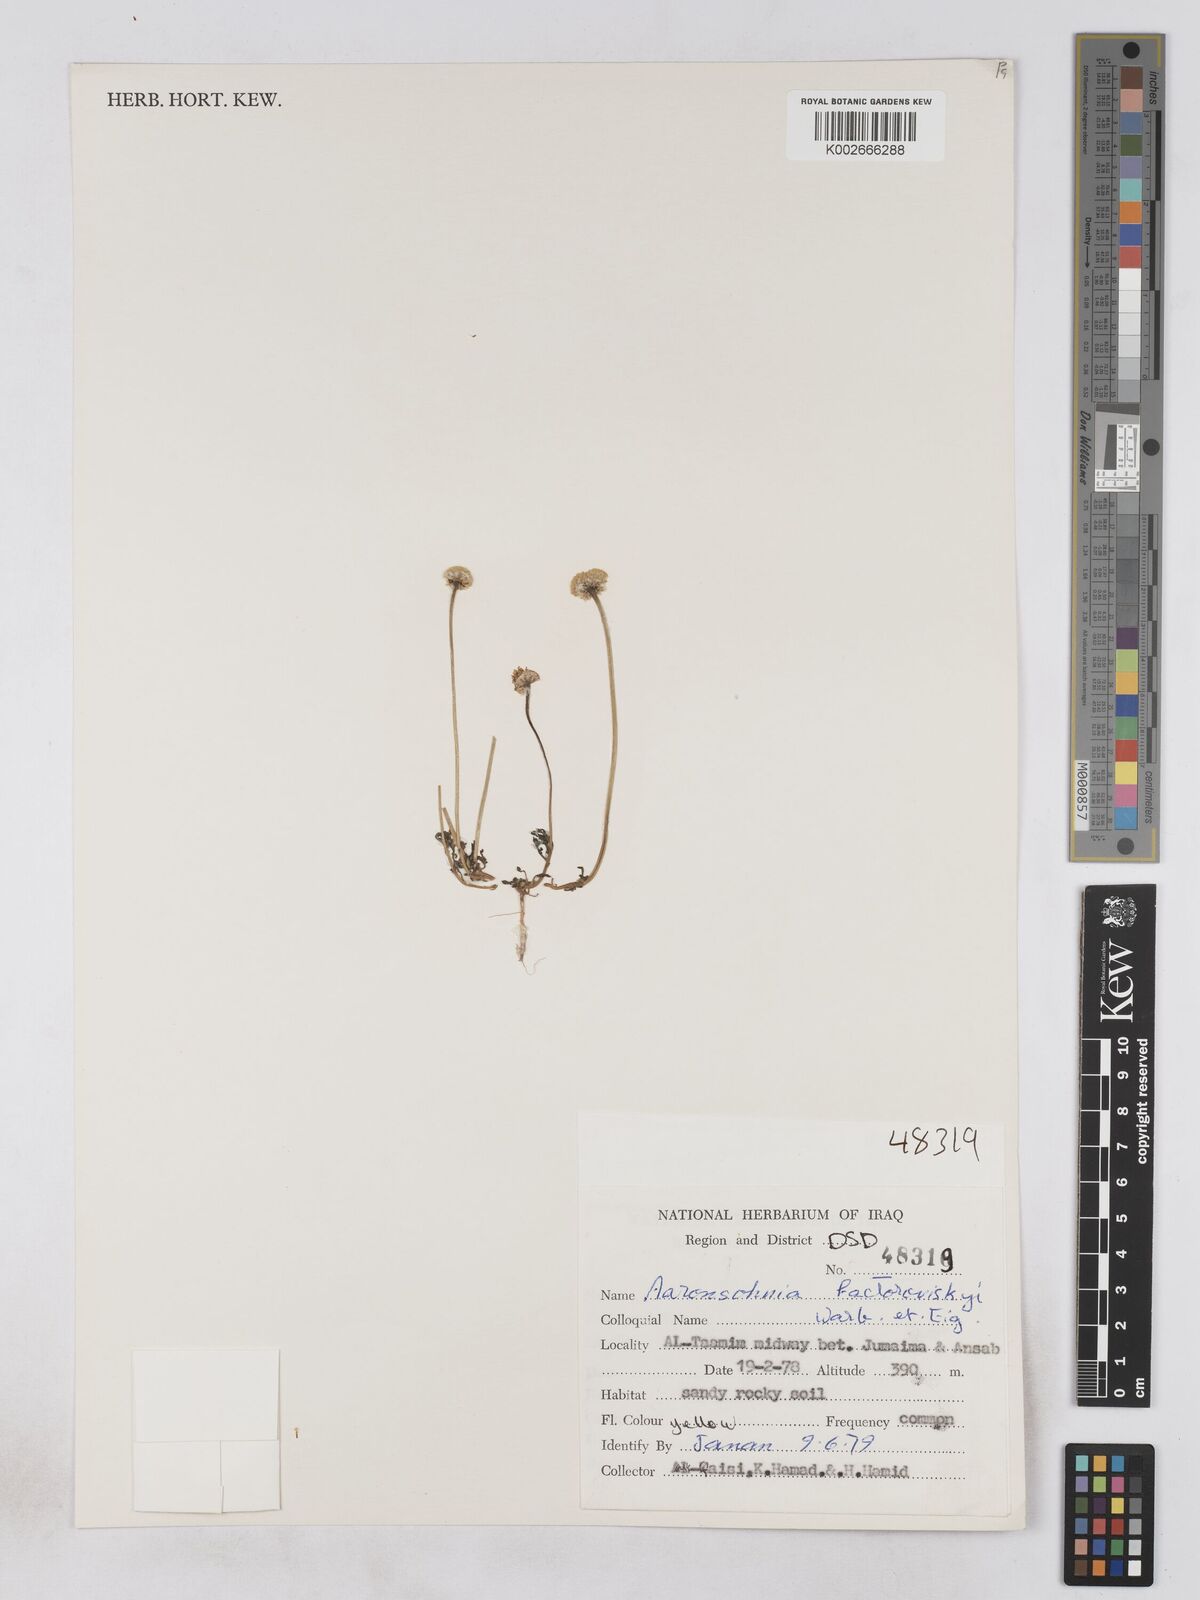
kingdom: Plantae
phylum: Tracheophyta
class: Magnoliopsida
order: Asterales
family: Asteraceae
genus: Otoglyphis
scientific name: Otoglyphis factorovskyi
